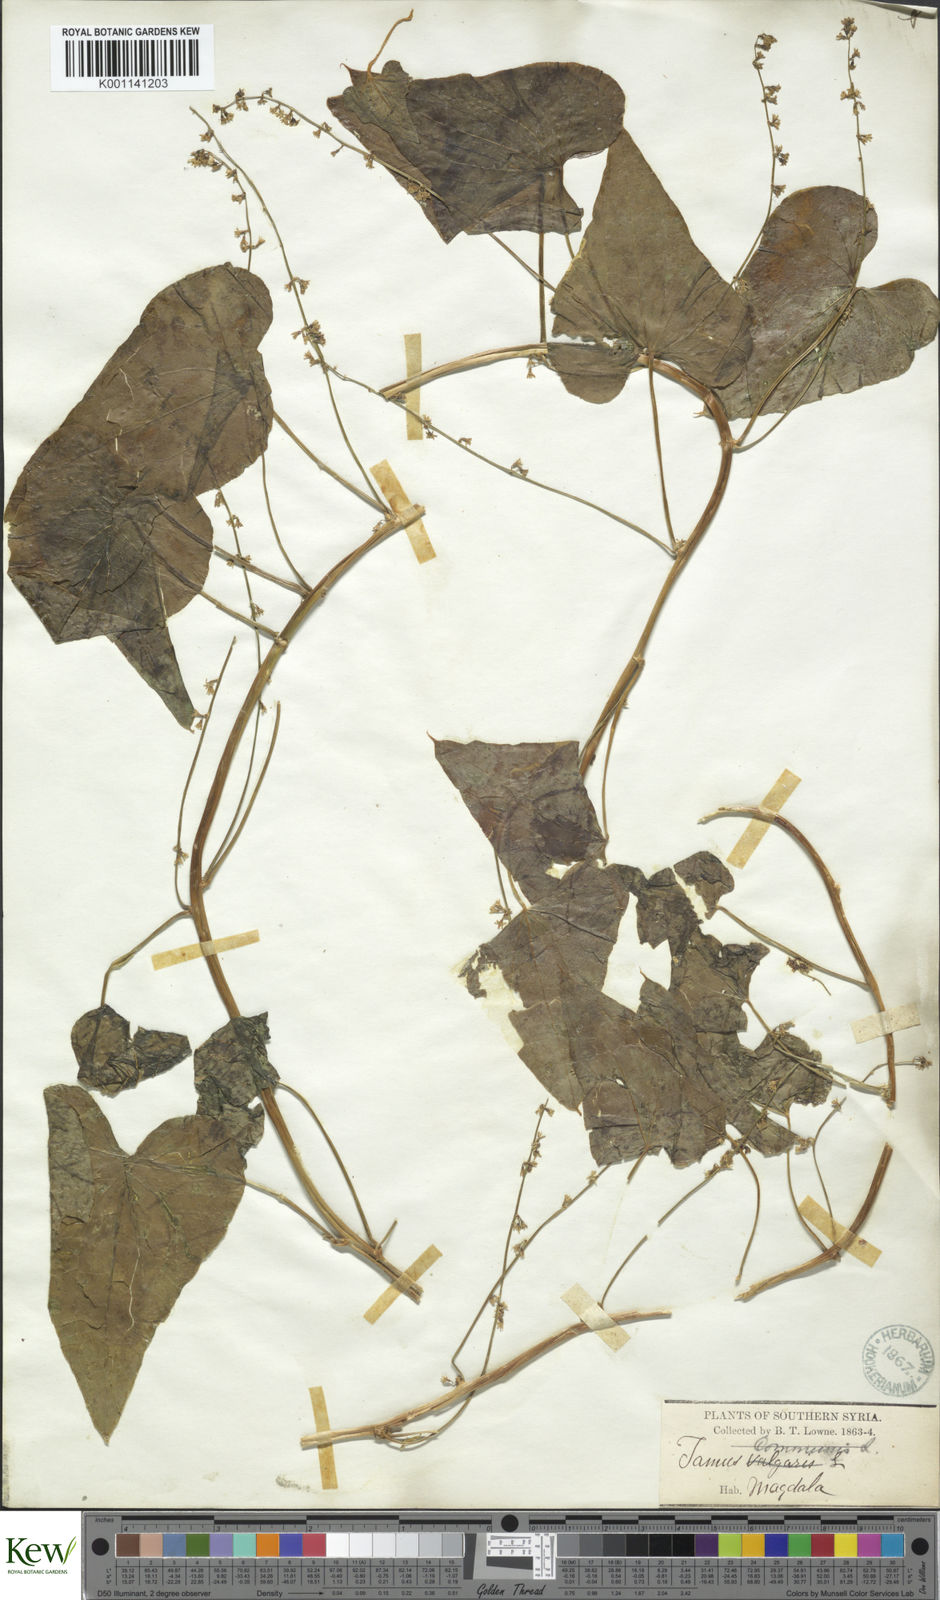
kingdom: Plantae
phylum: Tracheophyta
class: Liliopsida
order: Dioscoreales
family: Dioscoreaceae
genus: Dioscorea
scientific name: Dioscorea communis
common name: Black-bindweed
